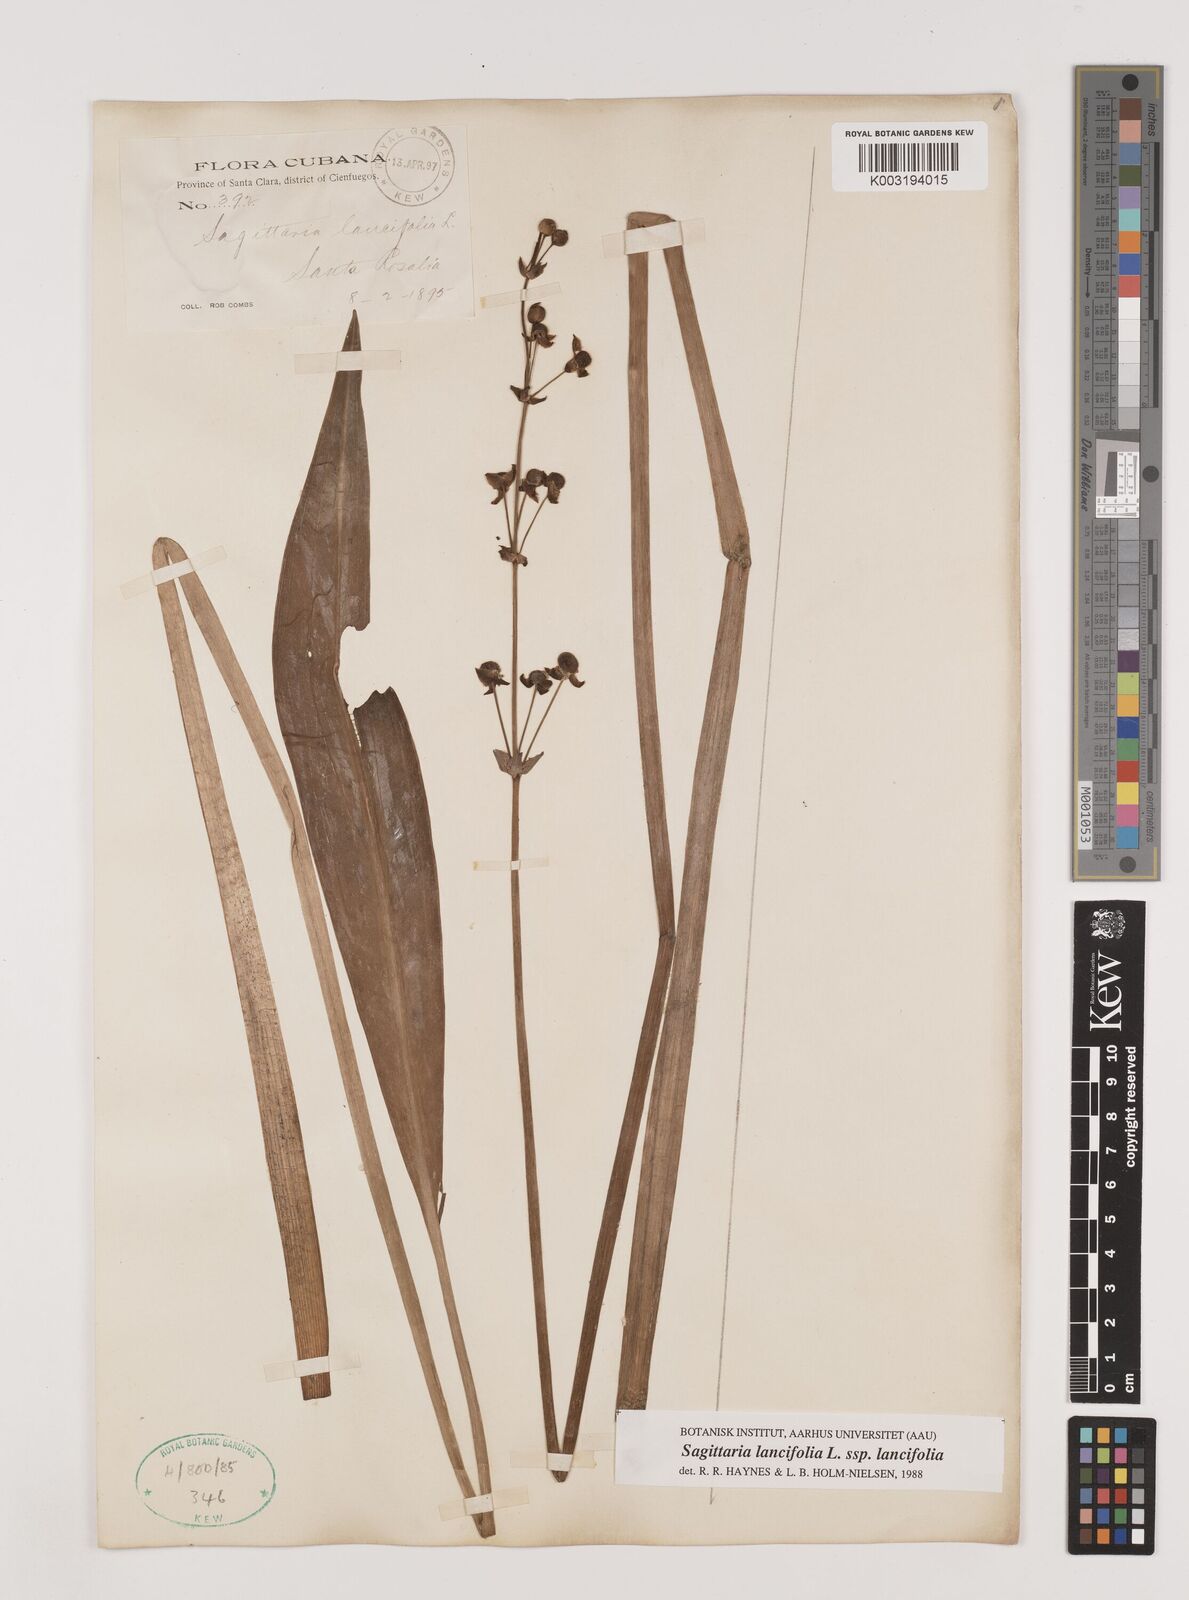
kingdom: Plantae
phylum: Tracheophyta
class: Liliopsida
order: Alismatales
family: Alismataceae
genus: Sagittaria
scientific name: Sagittaria lancifolia
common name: Lance-leaf arrowhead
